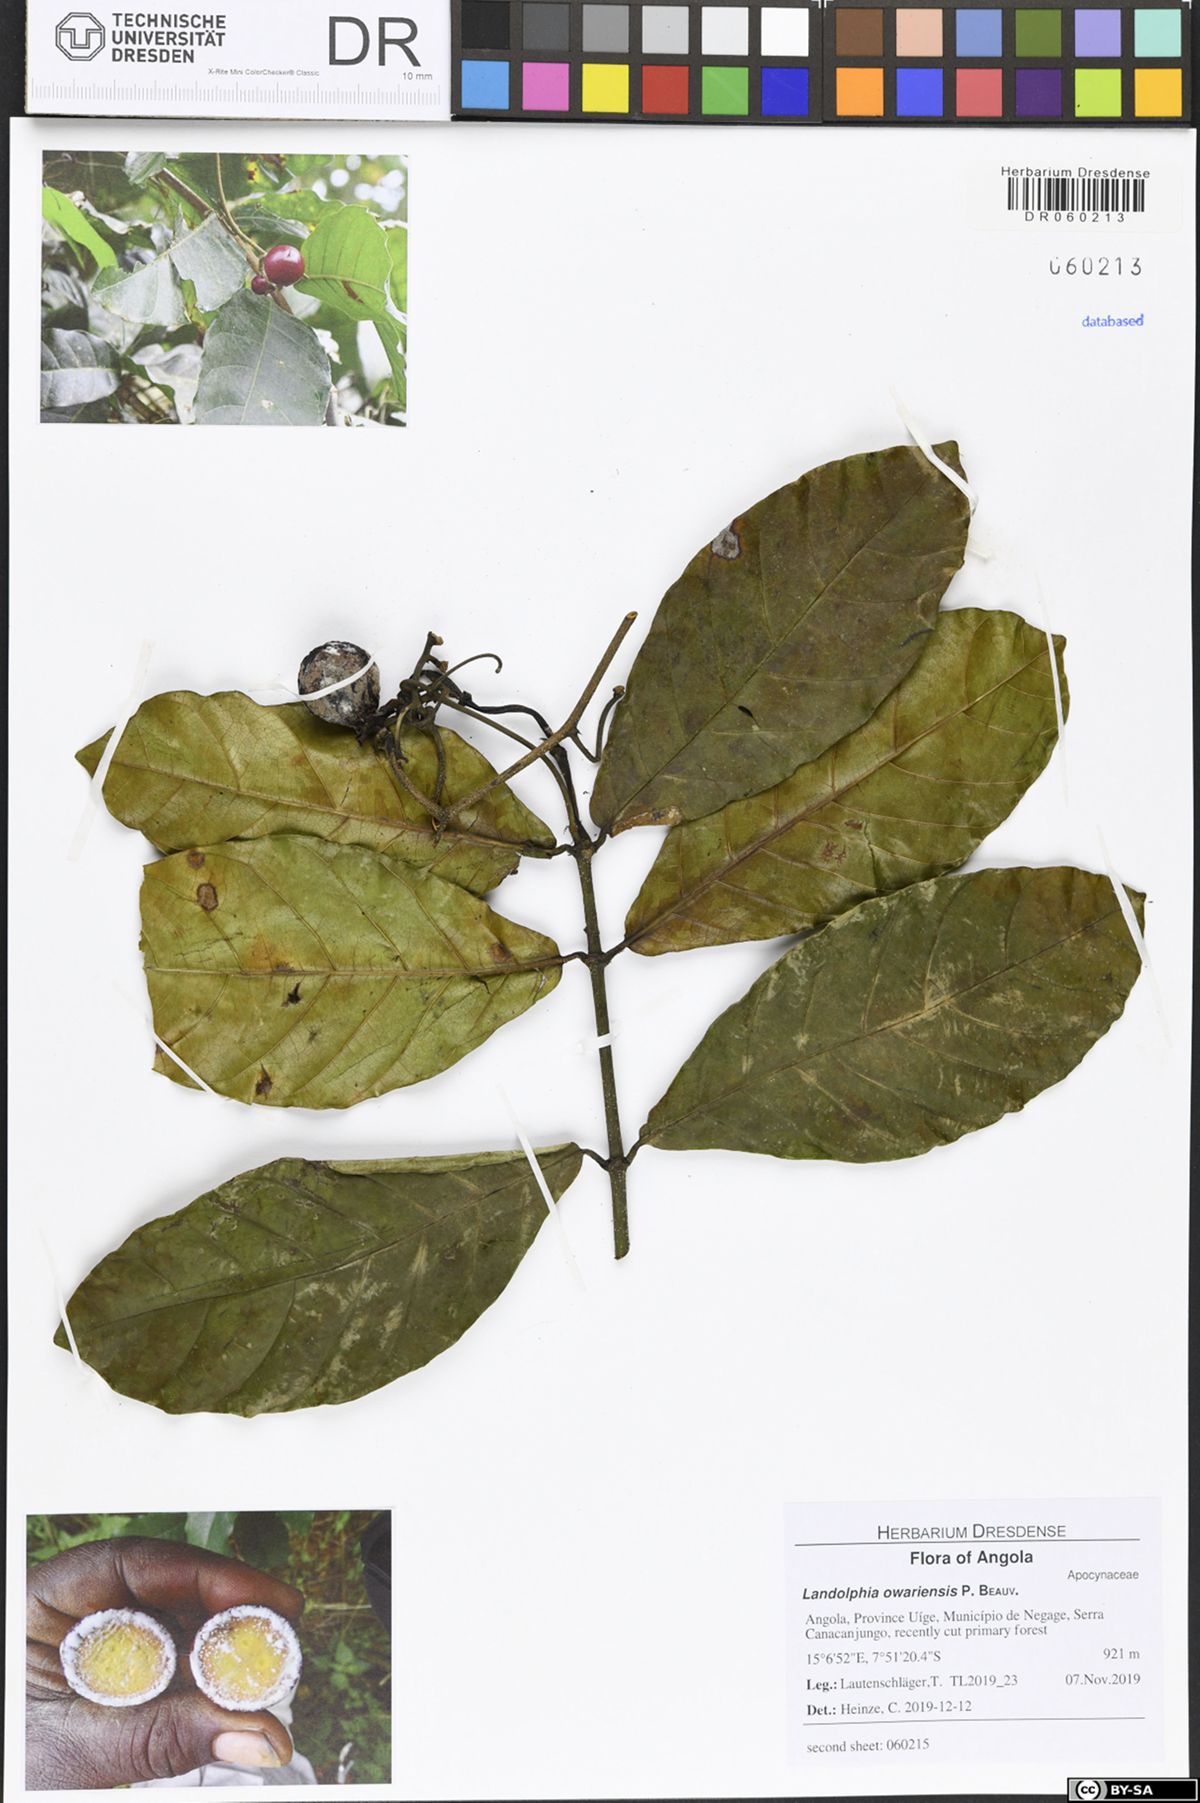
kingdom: Plantae
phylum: Tracheophyta
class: Magnoliopsida
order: Gentianales
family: Apocynaceae
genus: Dictyophleba
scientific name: Dictyophleba lucida
